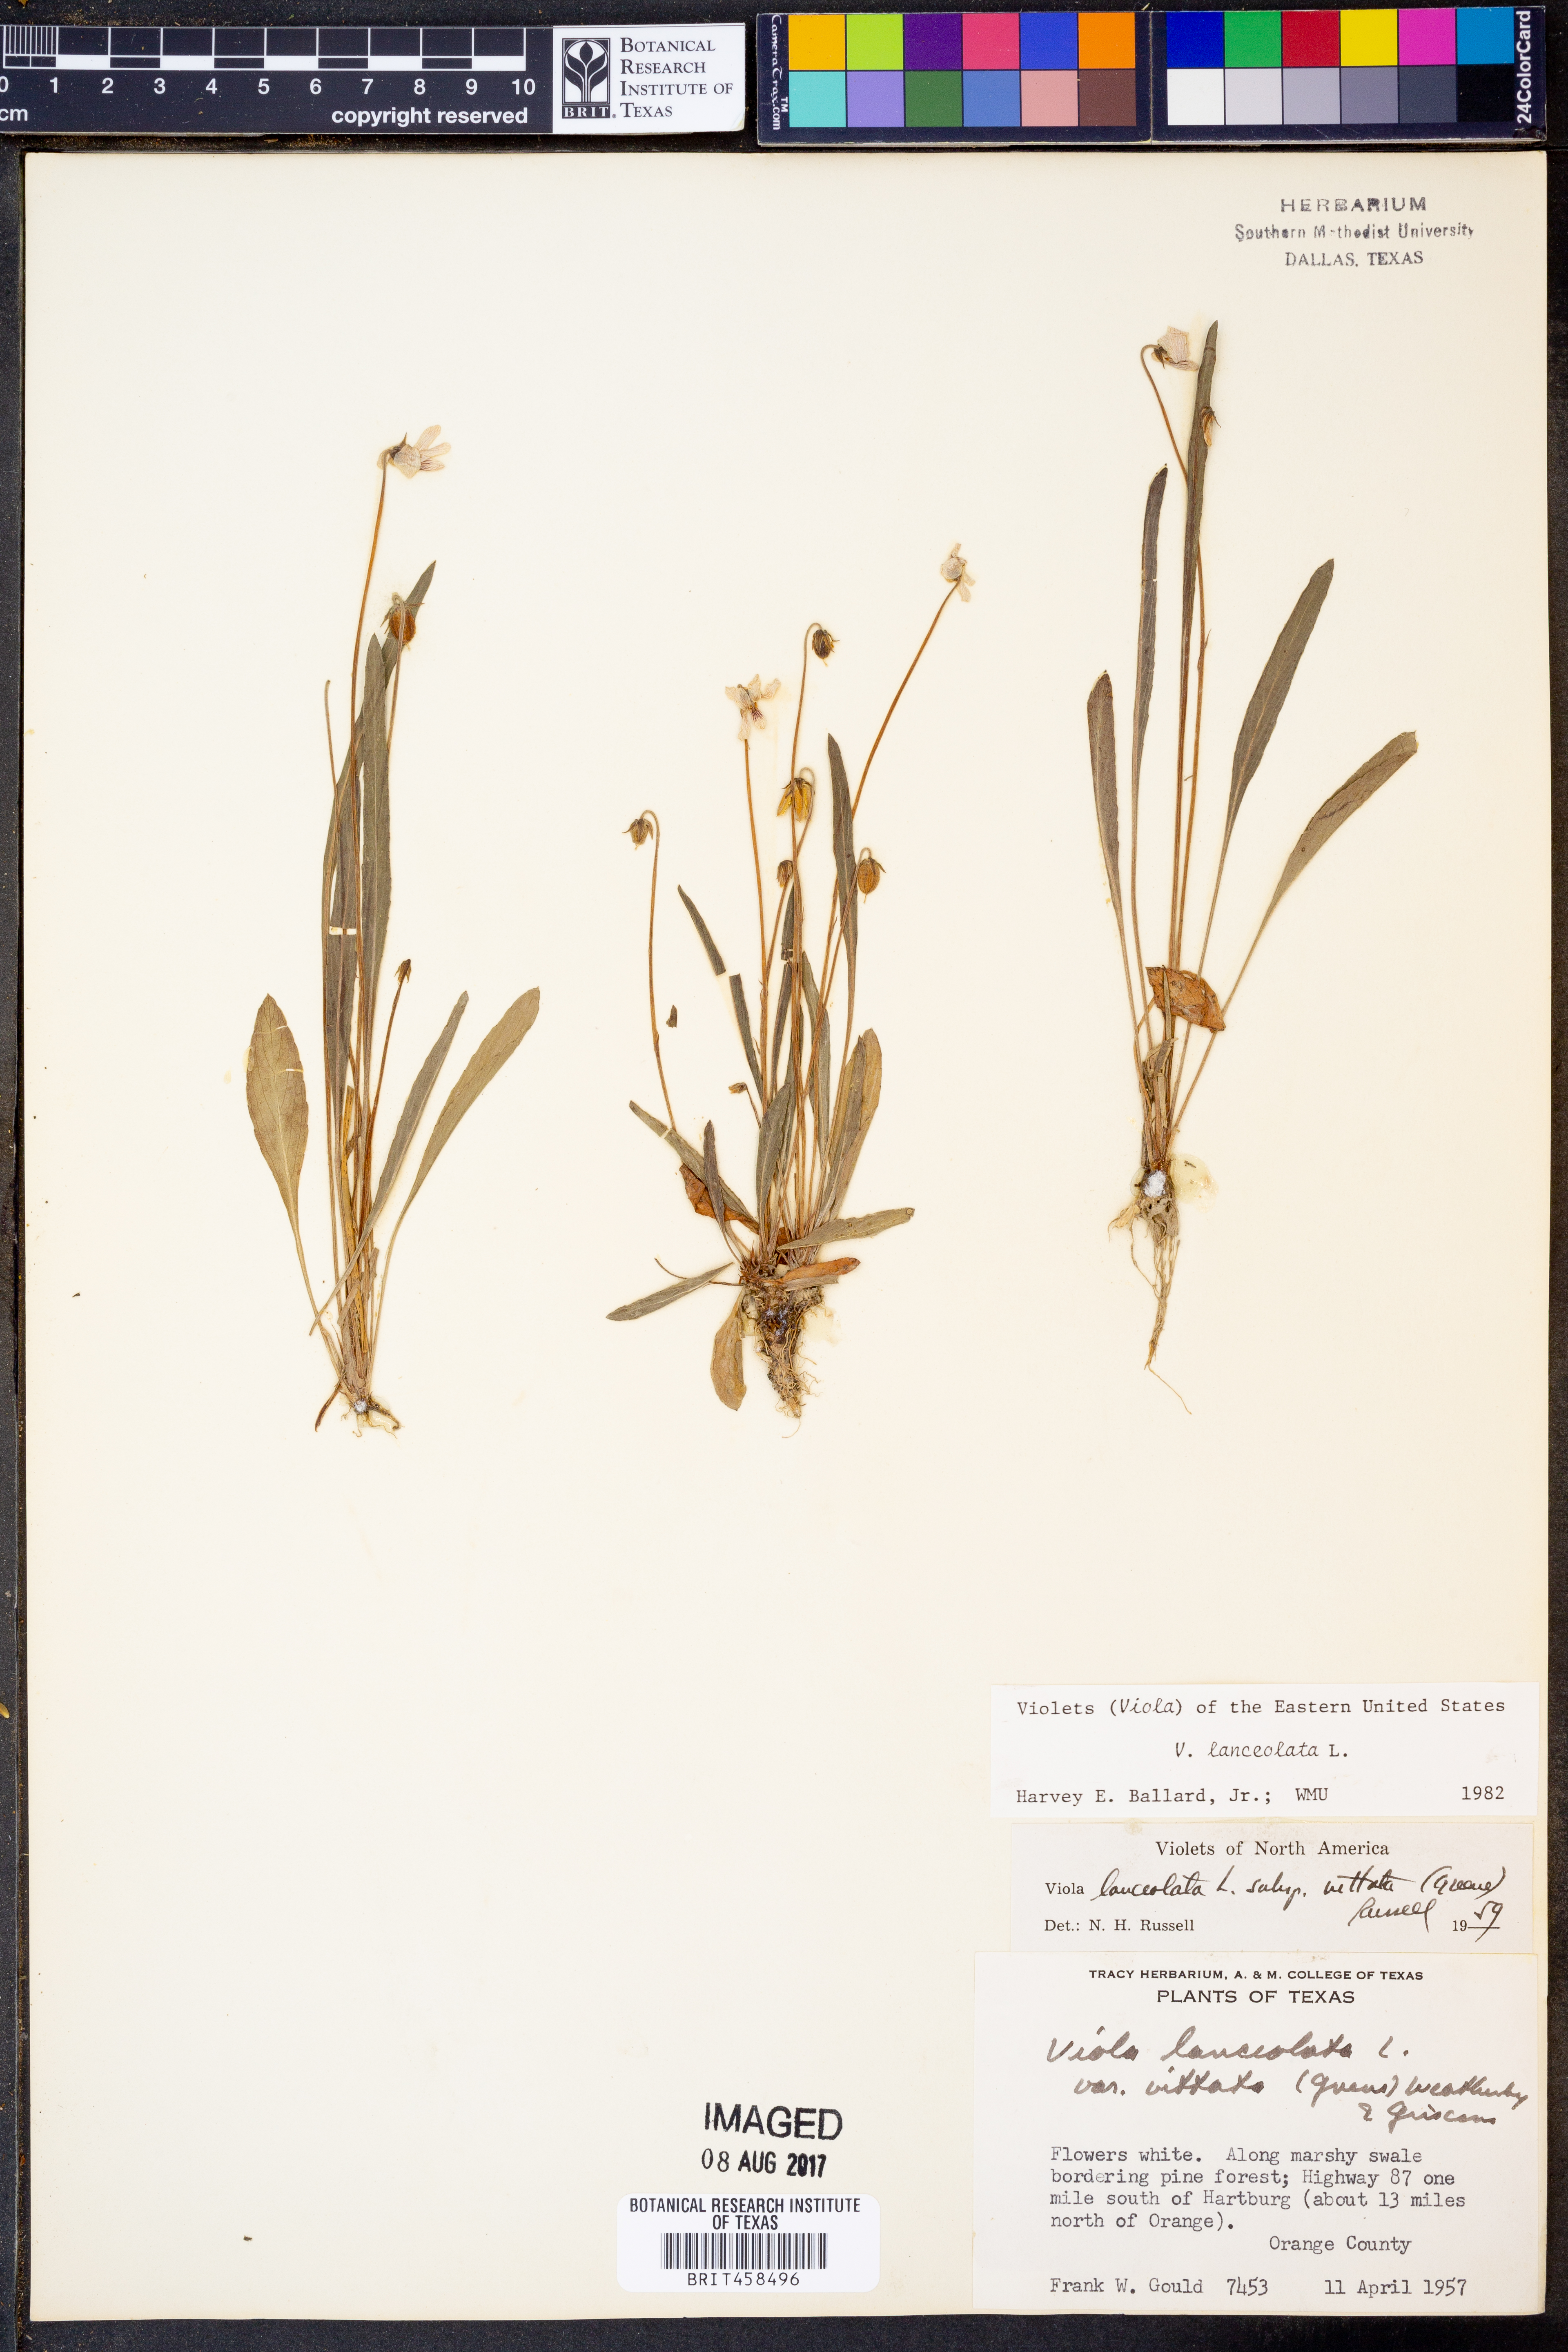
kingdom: Plantae
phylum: Tracheophyta
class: Magnoliopsida
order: Malpighiales
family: Violaceae
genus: Viola
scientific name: Viola lanceolata
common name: Bog white violet
